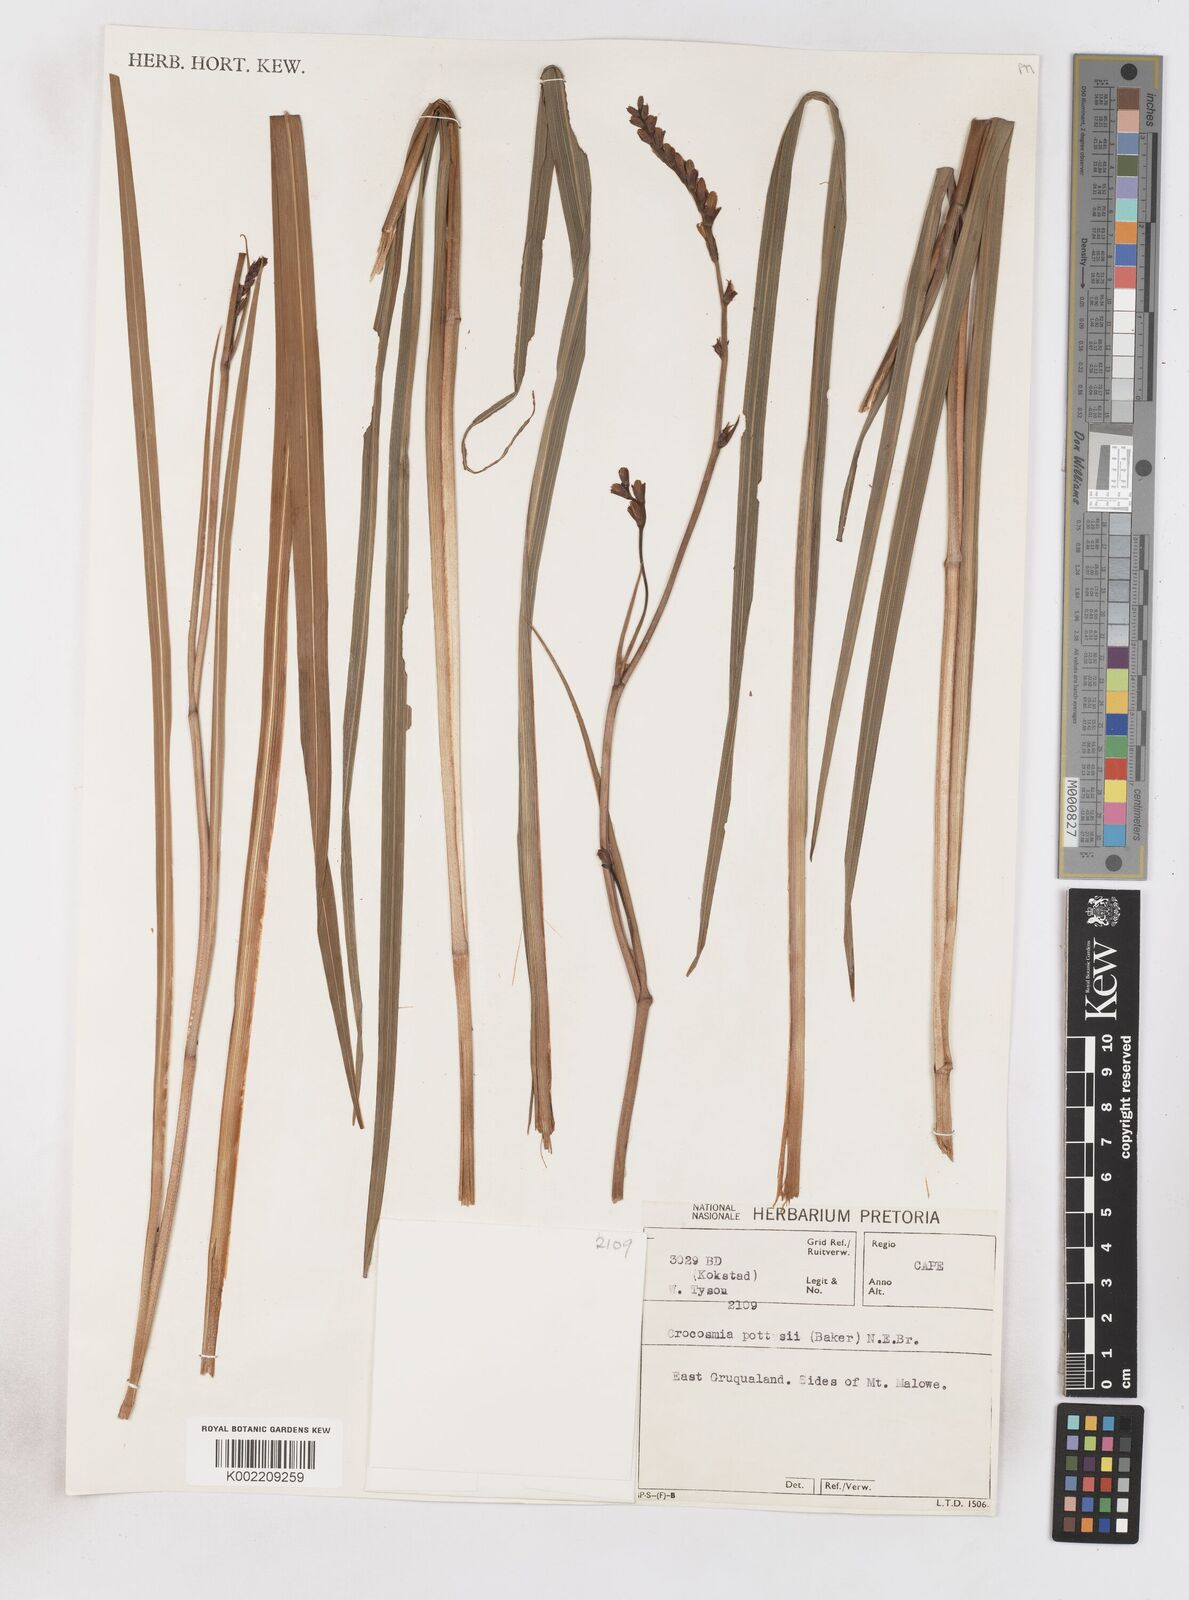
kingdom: Plantae
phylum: Tracheophyta
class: Liliopsida
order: Asparagales
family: Iridaceae
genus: Crocosmia
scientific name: Crocosmia pottsii
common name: Pott's montbretia
